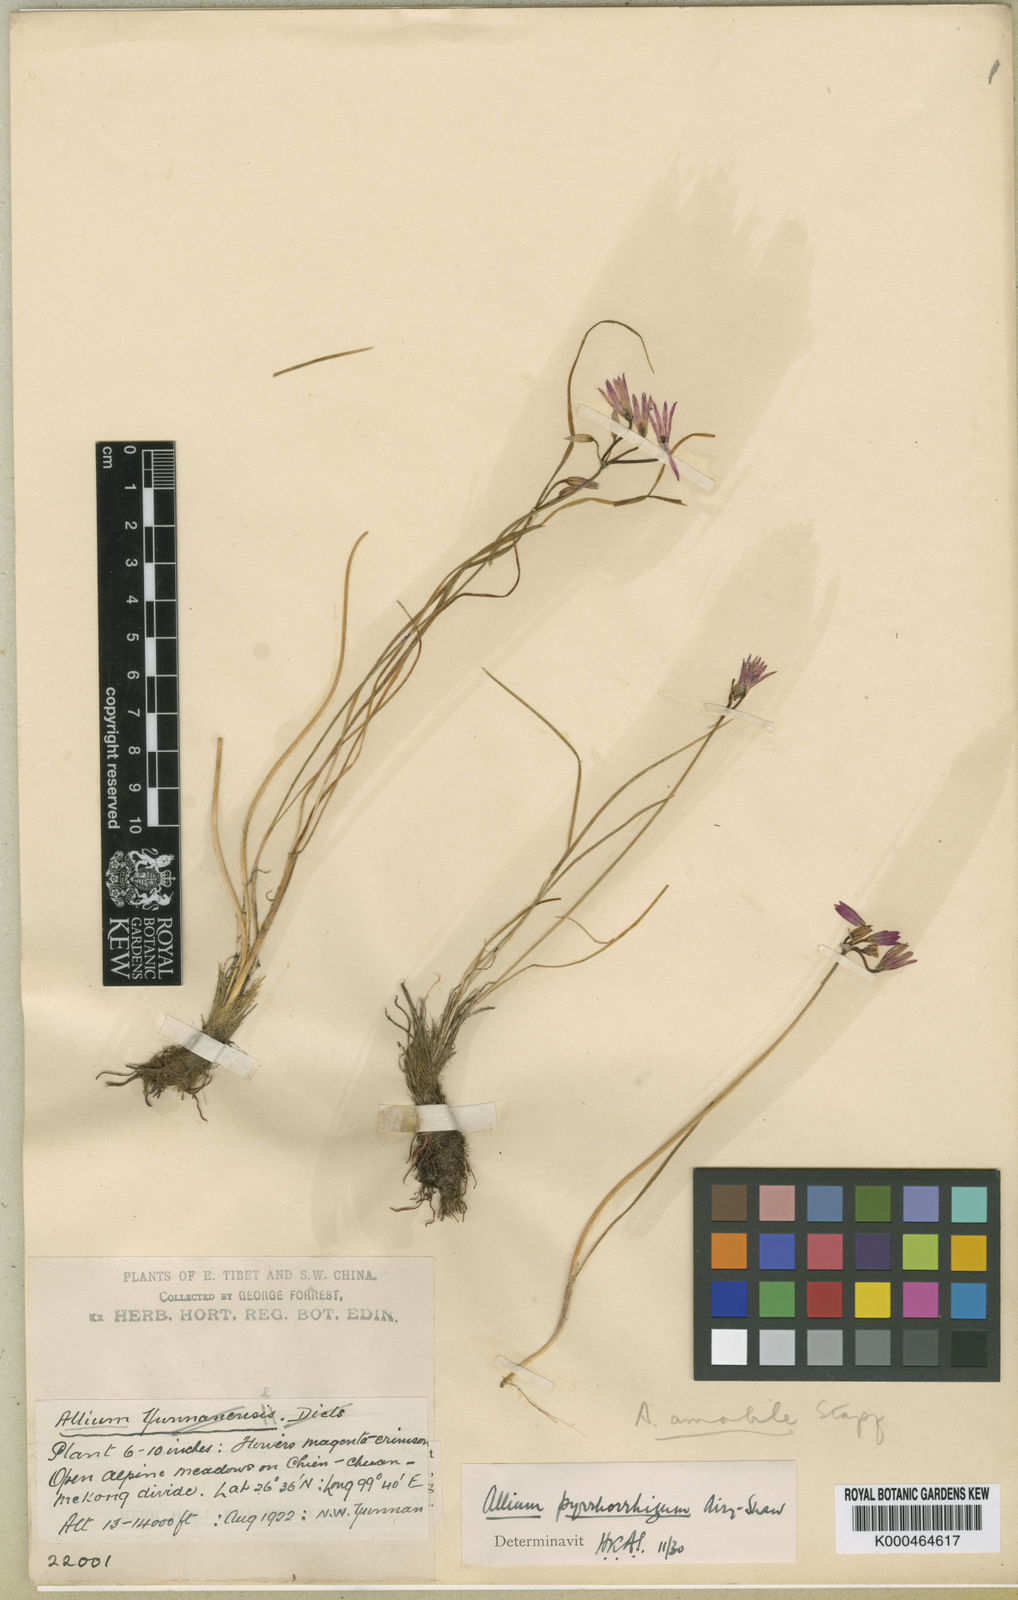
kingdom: Plantae
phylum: Tracheophyta
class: Liliopsida
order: Asparagales
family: Amaryllidaceae
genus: Allium
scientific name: Allium mairei
